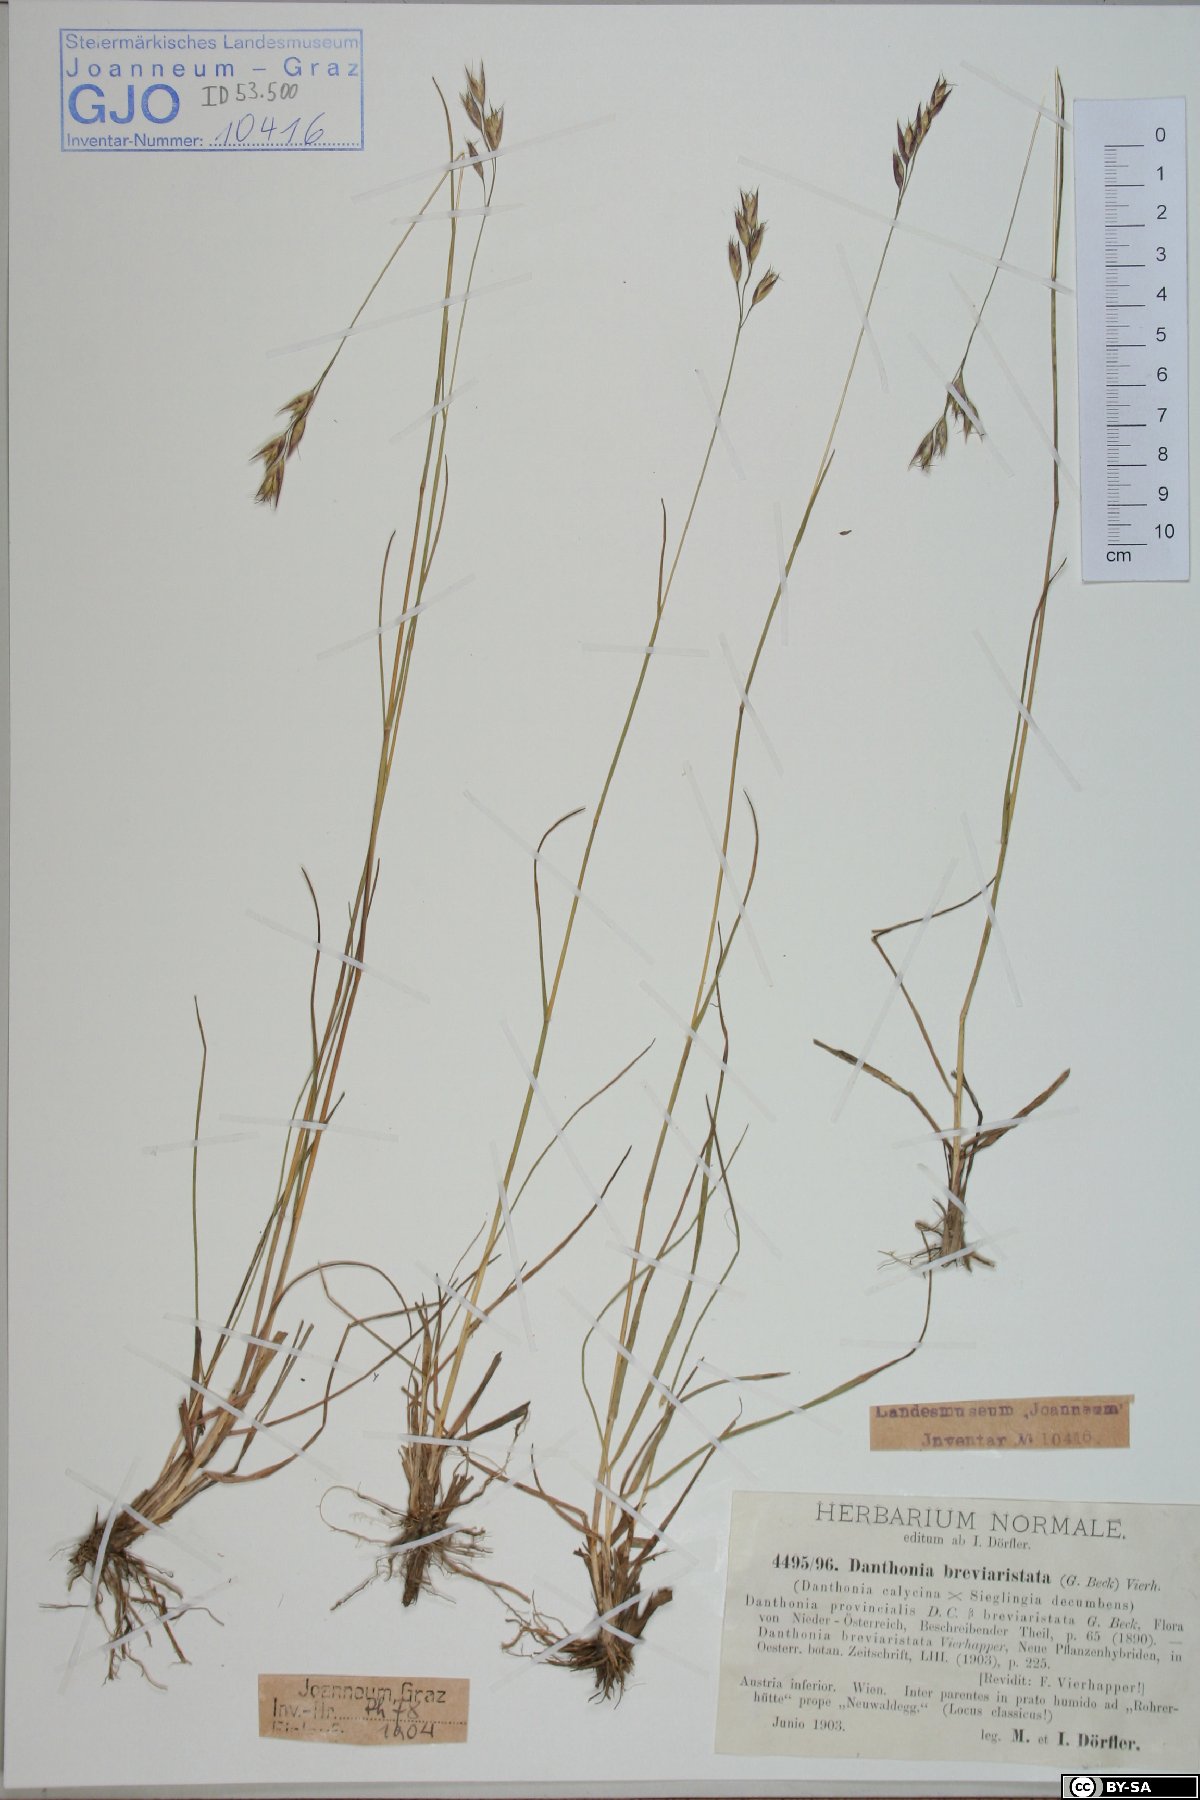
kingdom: Plantae
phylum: Tracheophyta
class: Liliopsida
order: Poales
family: Poaceae
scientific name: Poaceae
